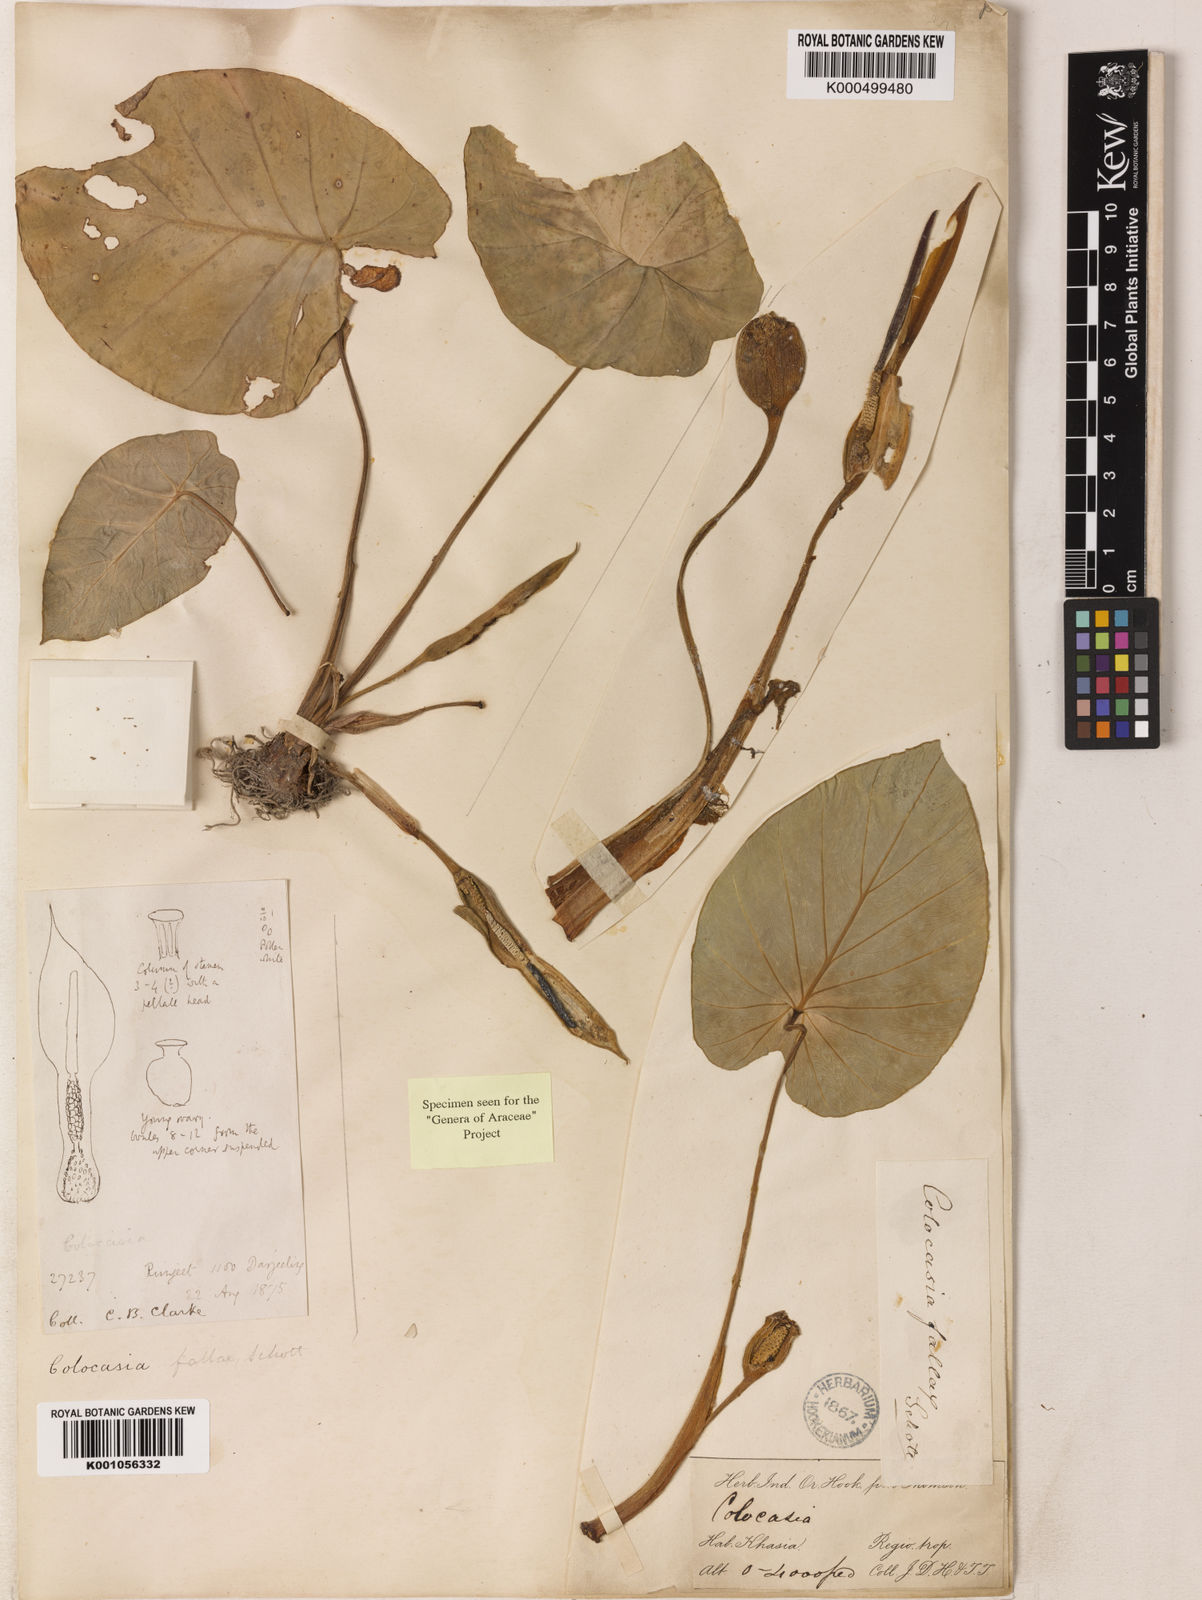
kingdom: Plantae
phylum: Tracheophyta
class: Liliopsida
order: Alismatales
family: Araceae
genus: Colocasia
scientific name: Colocasia fallax
